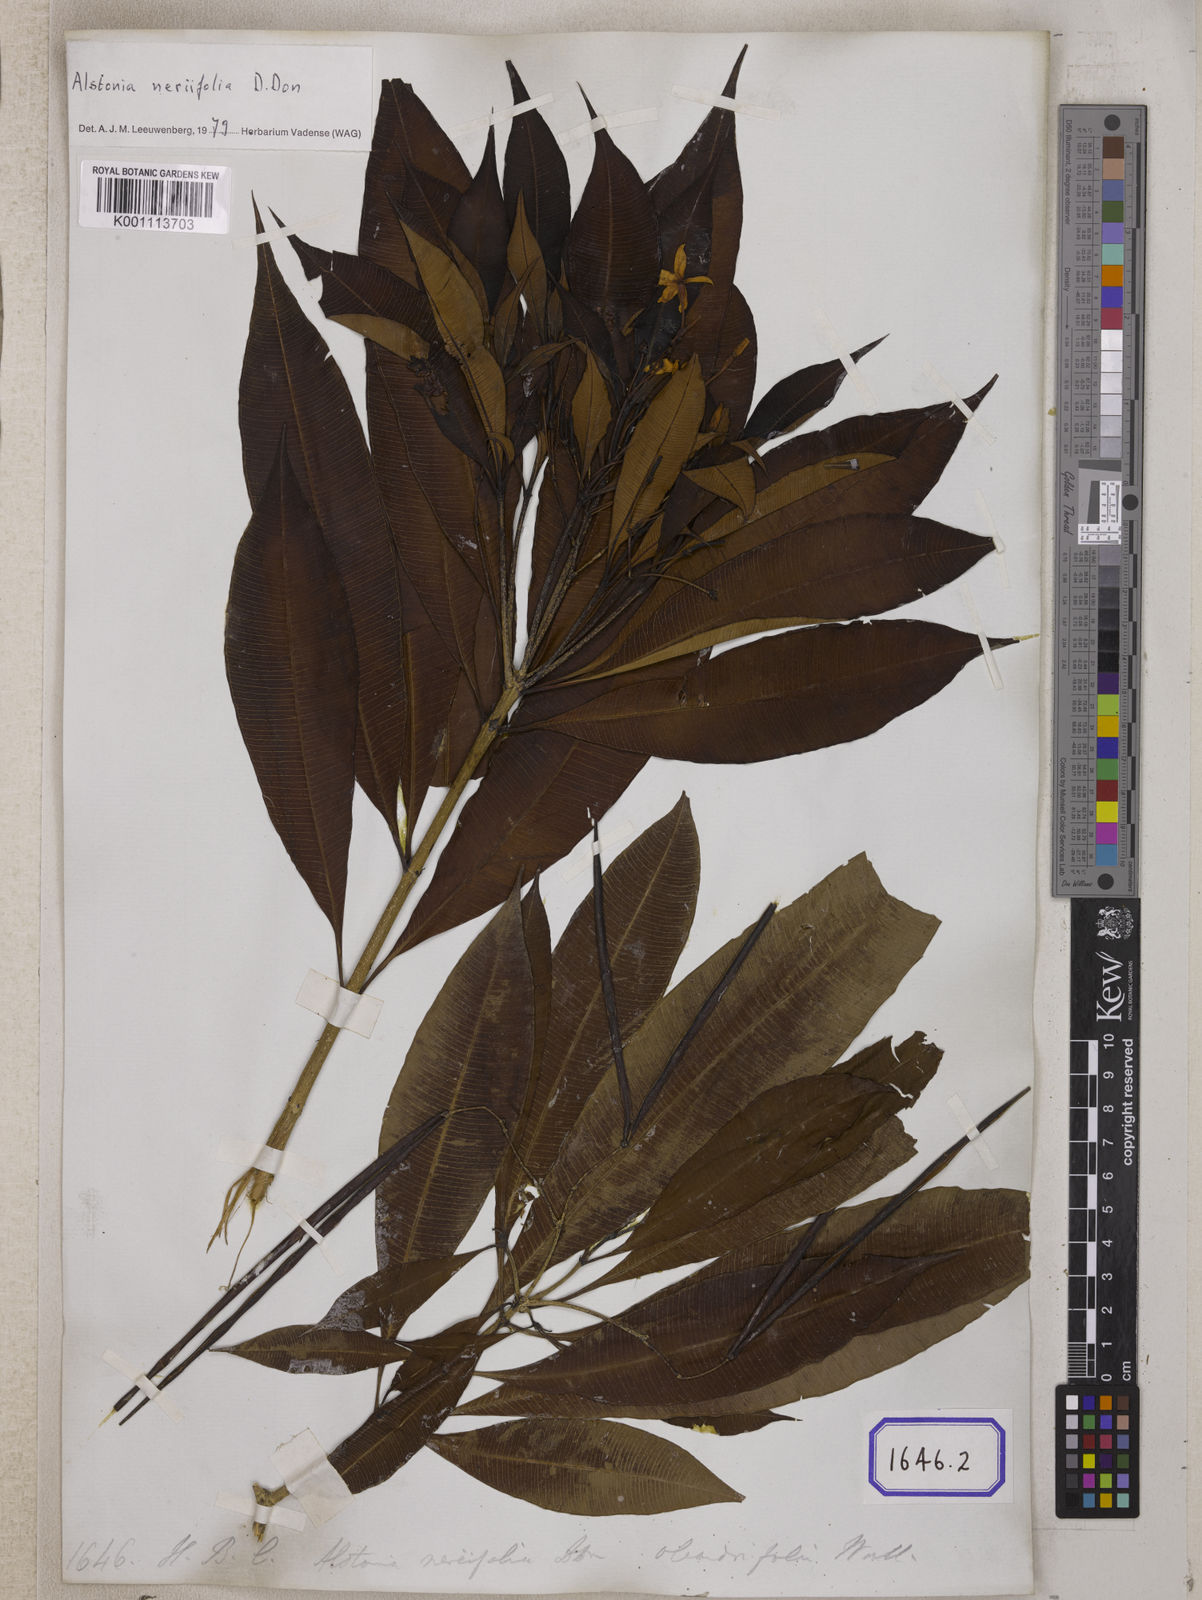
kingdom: Plantae
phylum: Tracheophyta
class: Magnoliopsida
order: Gentianales
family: Apocynaceae
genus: Alstonia
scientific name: Alstonia neriifolia
